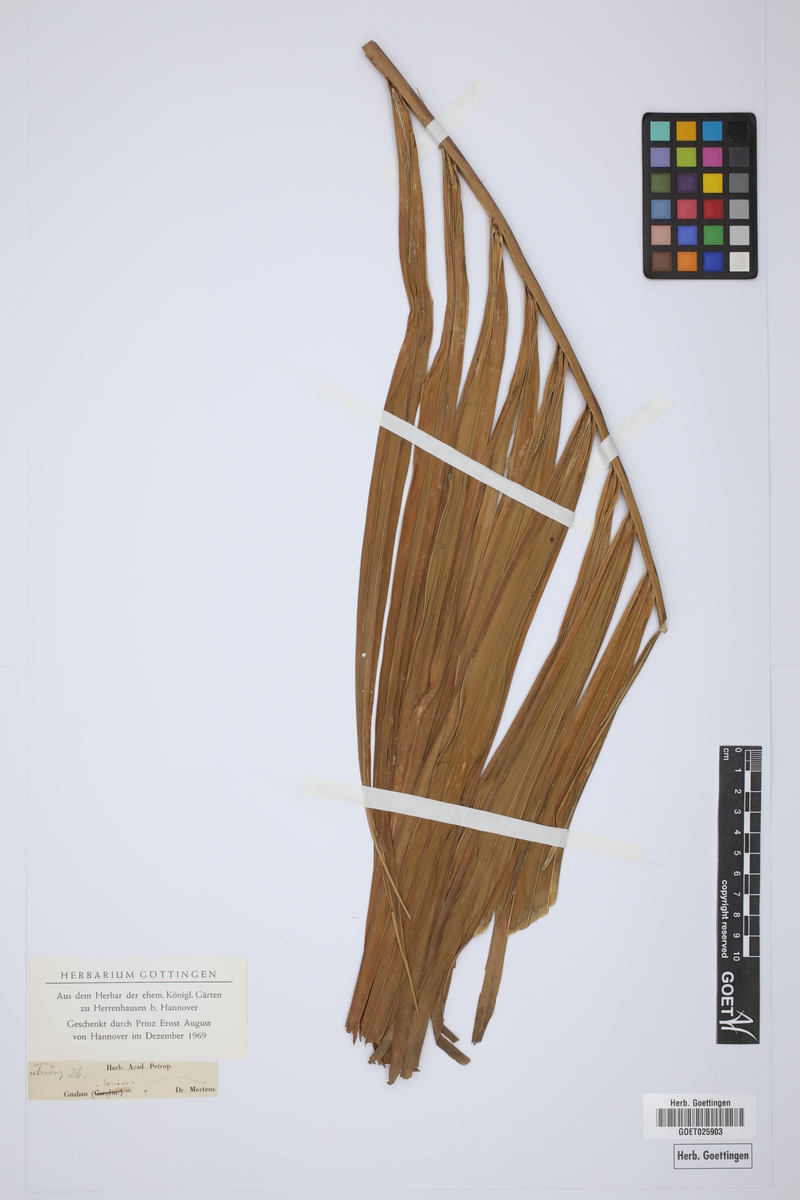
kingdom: Plantae
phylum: Tracheophyta
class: Liliopsida
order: Arecales
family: Arecaceae
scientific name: Arecaceae
